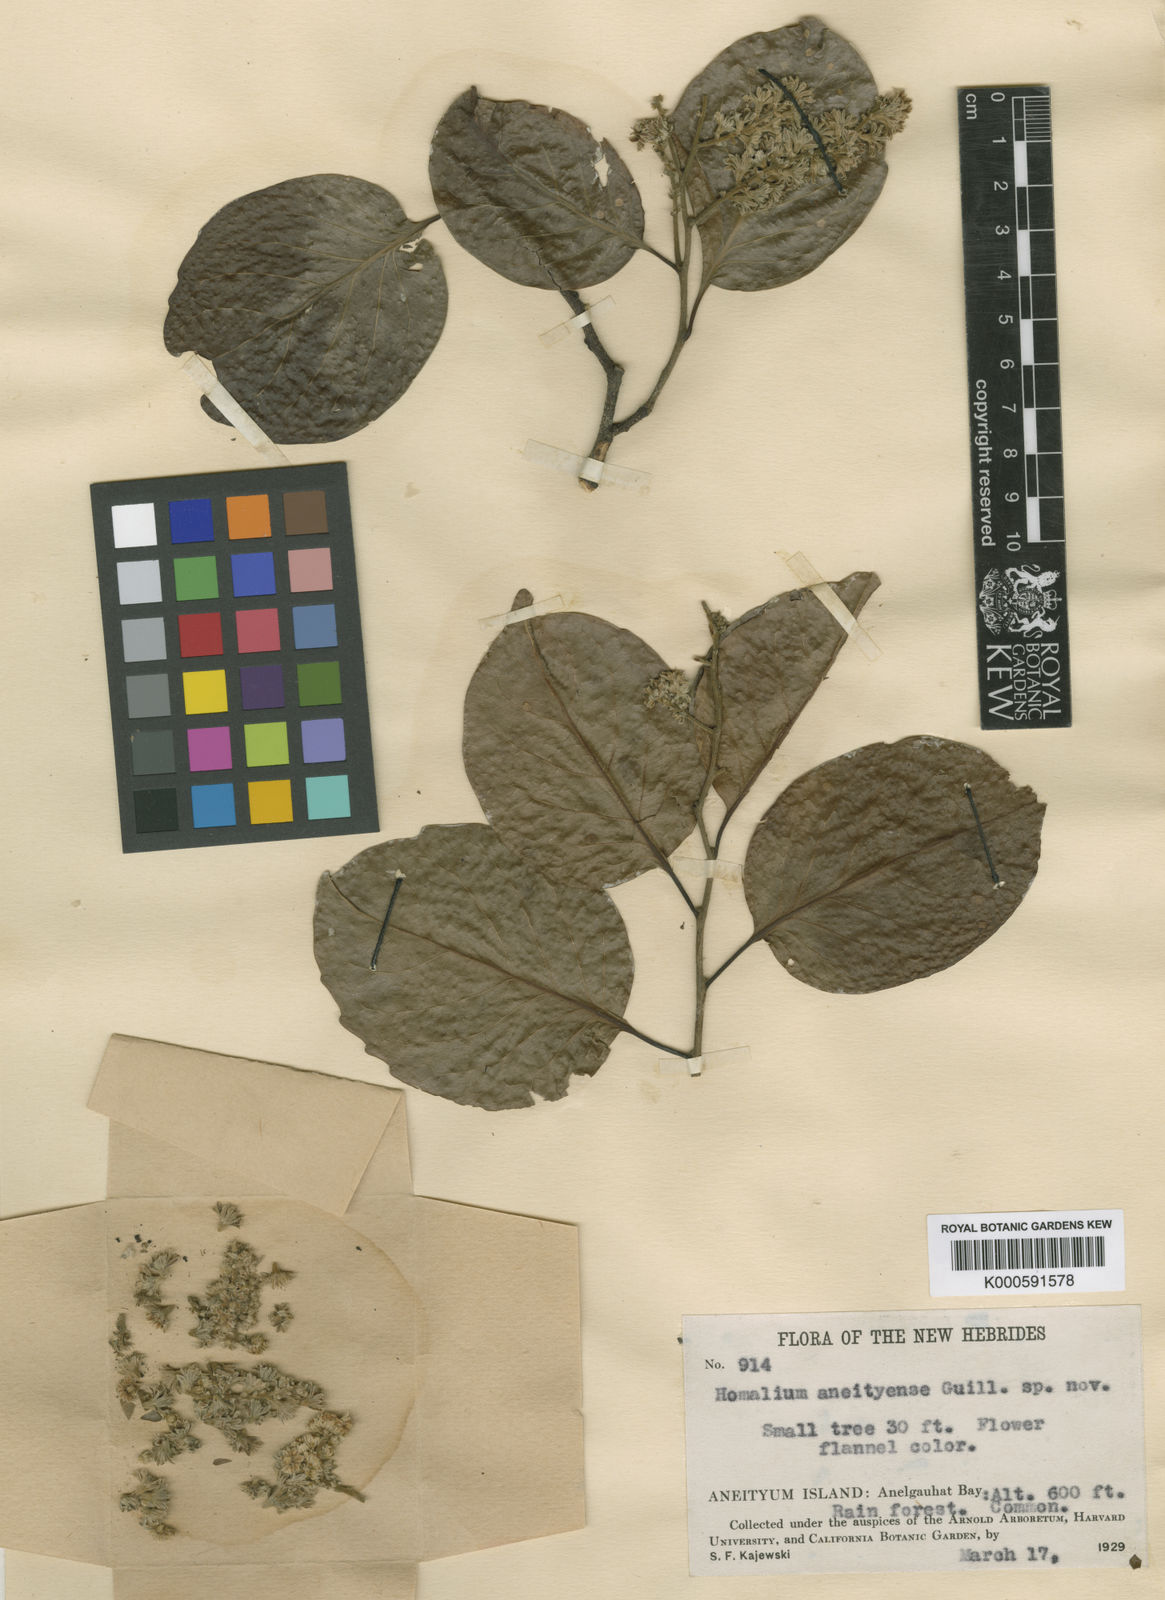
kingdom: Plantae
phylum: Tracheophyta
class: Magnoliopsida
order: Malpighiales
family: Salicaceae
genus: Homalium
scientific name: Homalium aneityense
